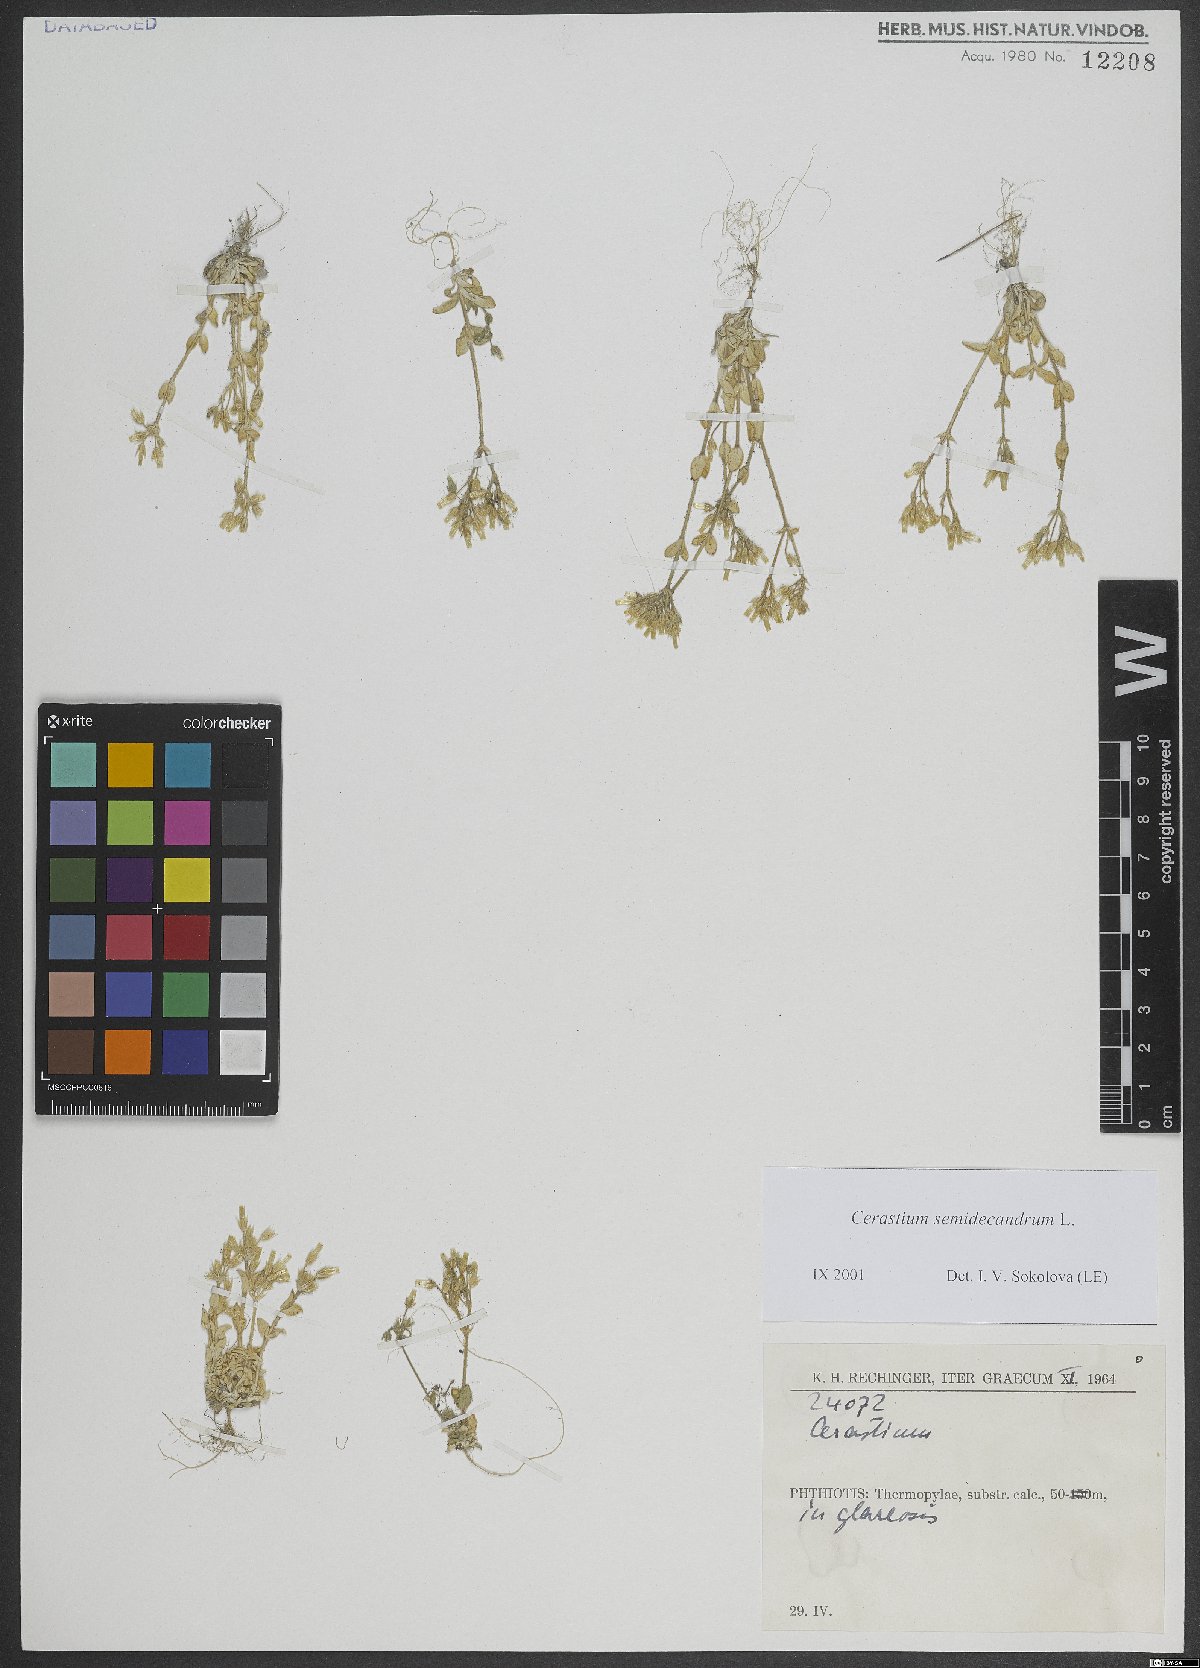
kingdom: Plantae
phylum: Tracheophyta
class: Magnoliopsida
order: Caryophyllales
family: Caryophyllaceae
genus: Cerastium
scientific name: Cerastium semidecandrum
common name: Little mouse-ear
